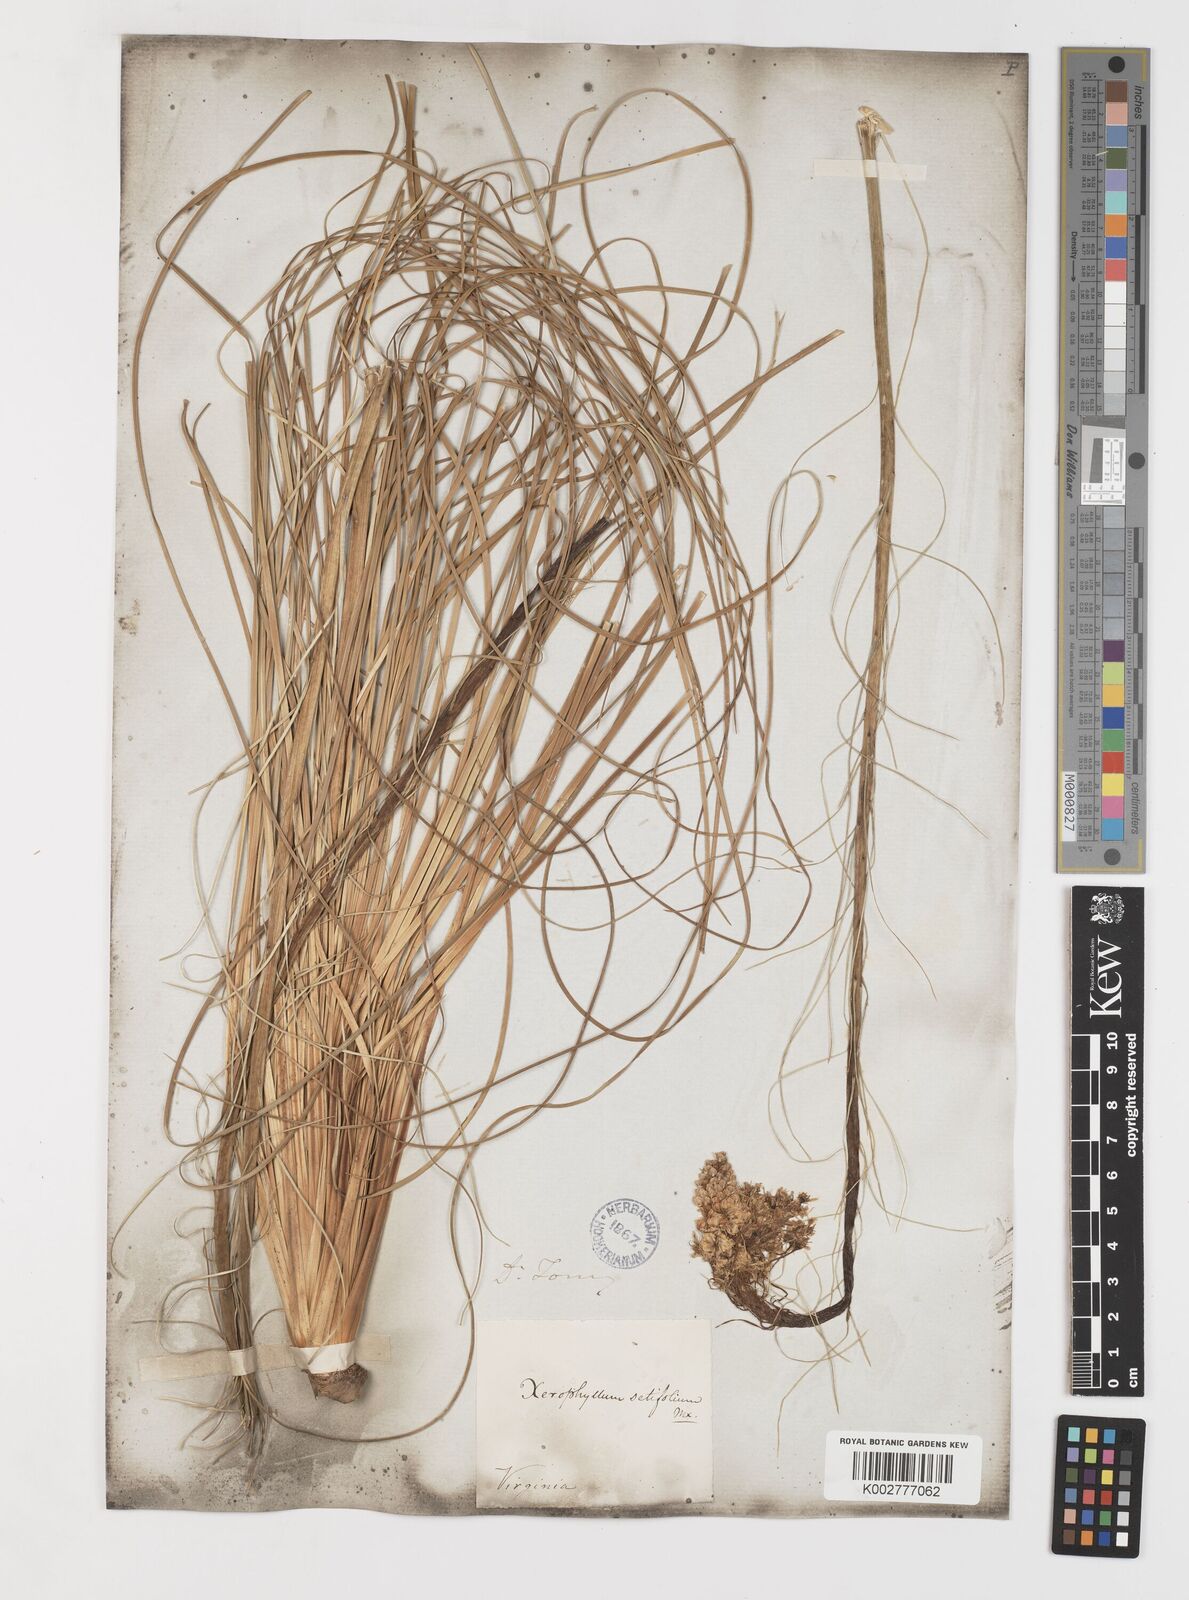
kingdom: Plantae
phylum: Tracheophyta
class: Liliopsida
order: Liliales
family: Melanthiaceae
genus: Xerophyllum
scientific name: Xerophyllum asphodeloides
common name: Mountain-asphodel
